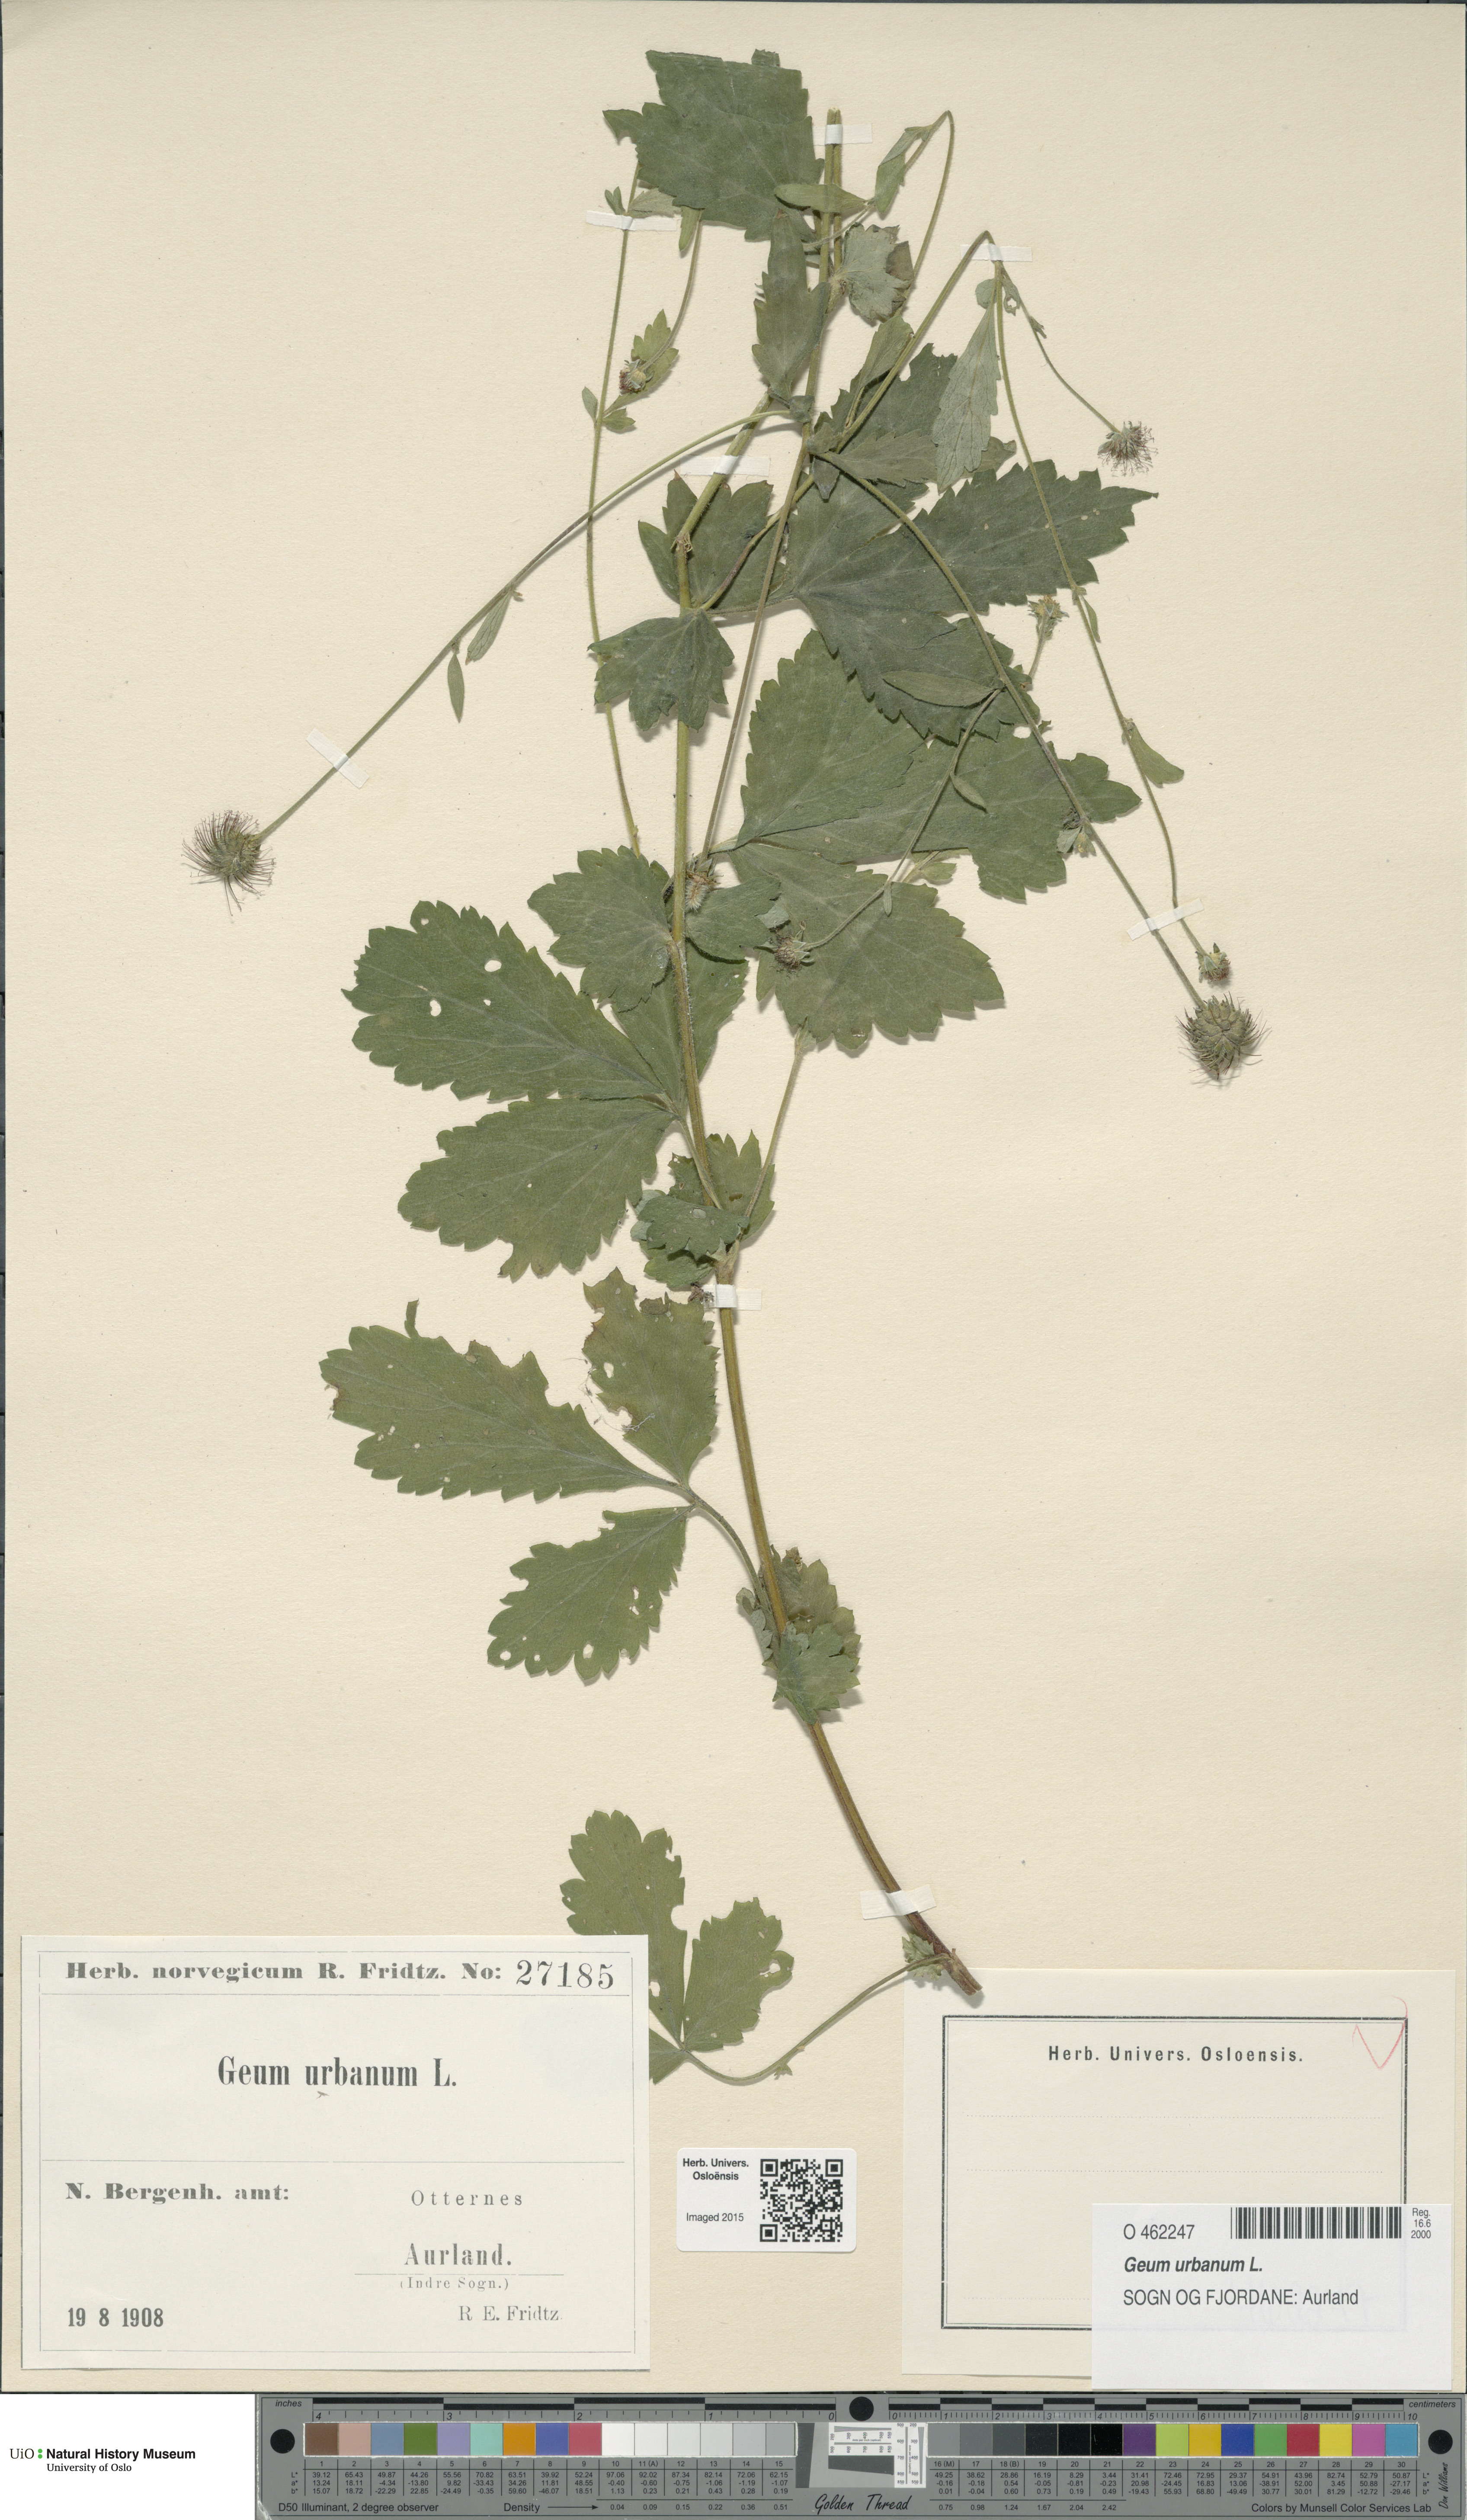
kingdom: Plantae
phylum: Tracheophyta
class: Magnoliopsida
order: Rosales
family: Rosaceae
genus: Geum
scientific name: Geum urbanum
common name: Wood avens
